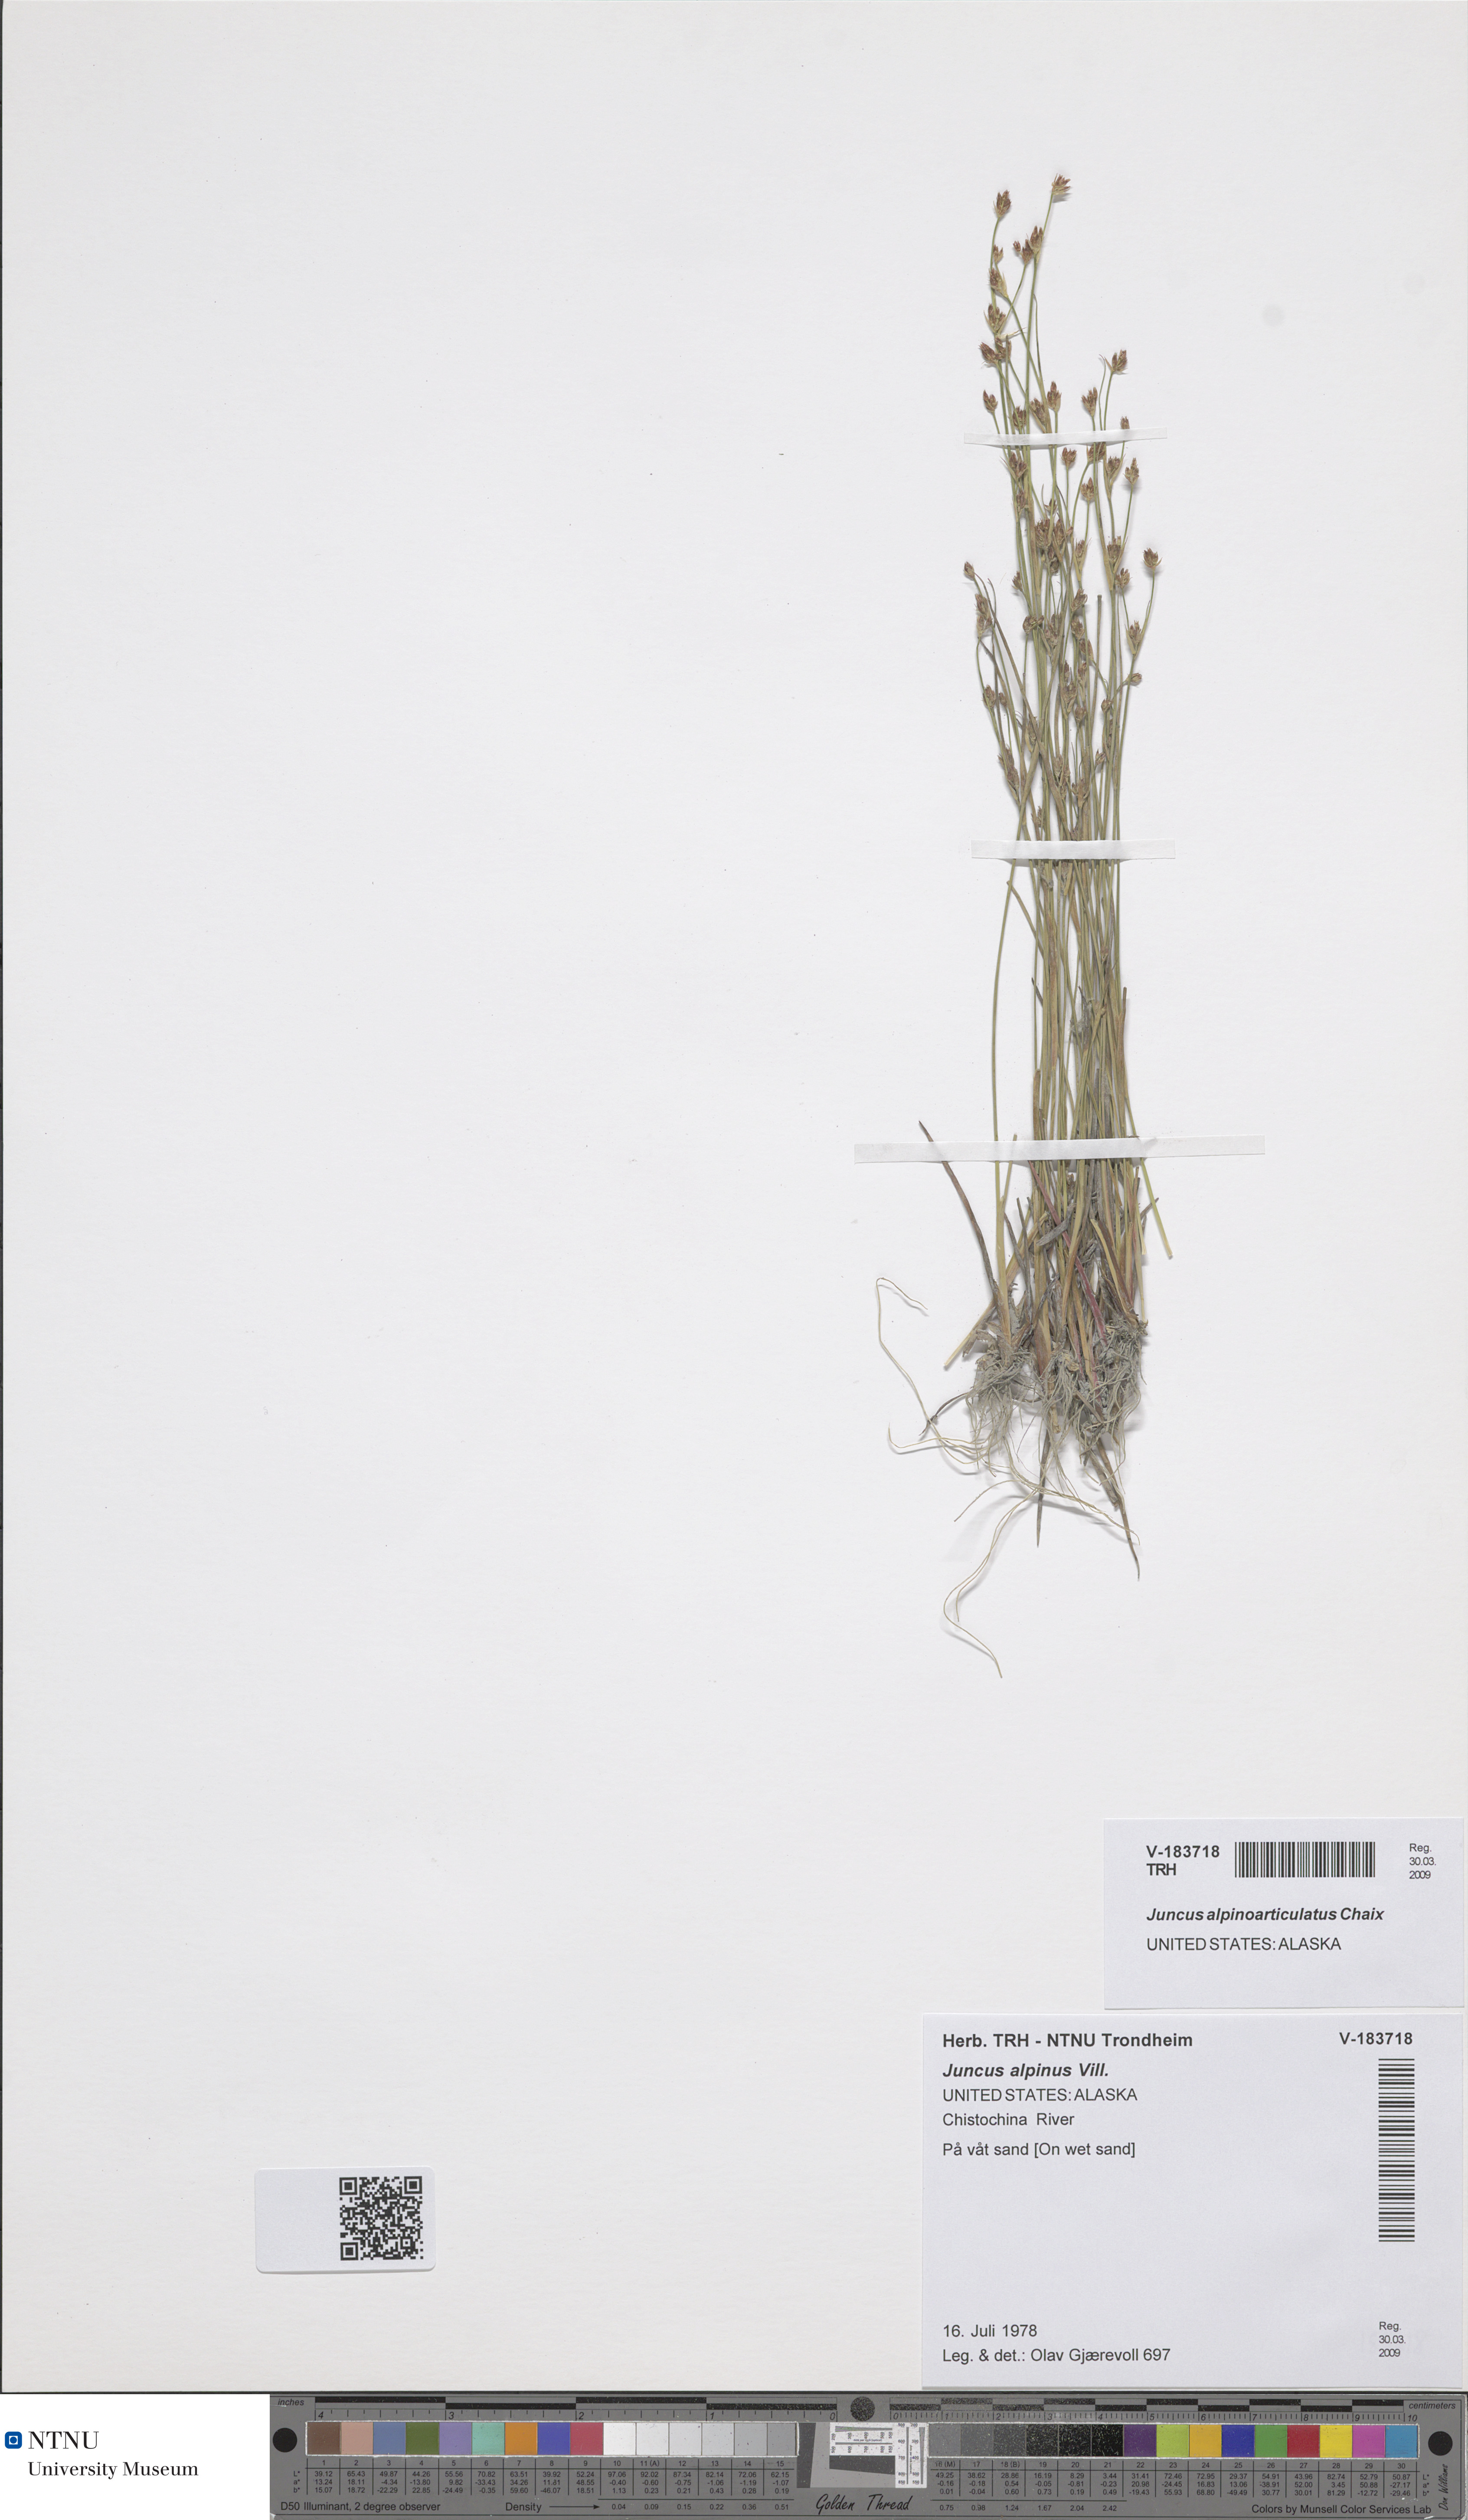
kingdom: Plantae
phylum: Tracheophyta
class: Liliopsida
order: Poales
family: Juncaceae
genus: Juncus
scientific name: Juncus alpinoarticulatus
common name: Alpine rush
